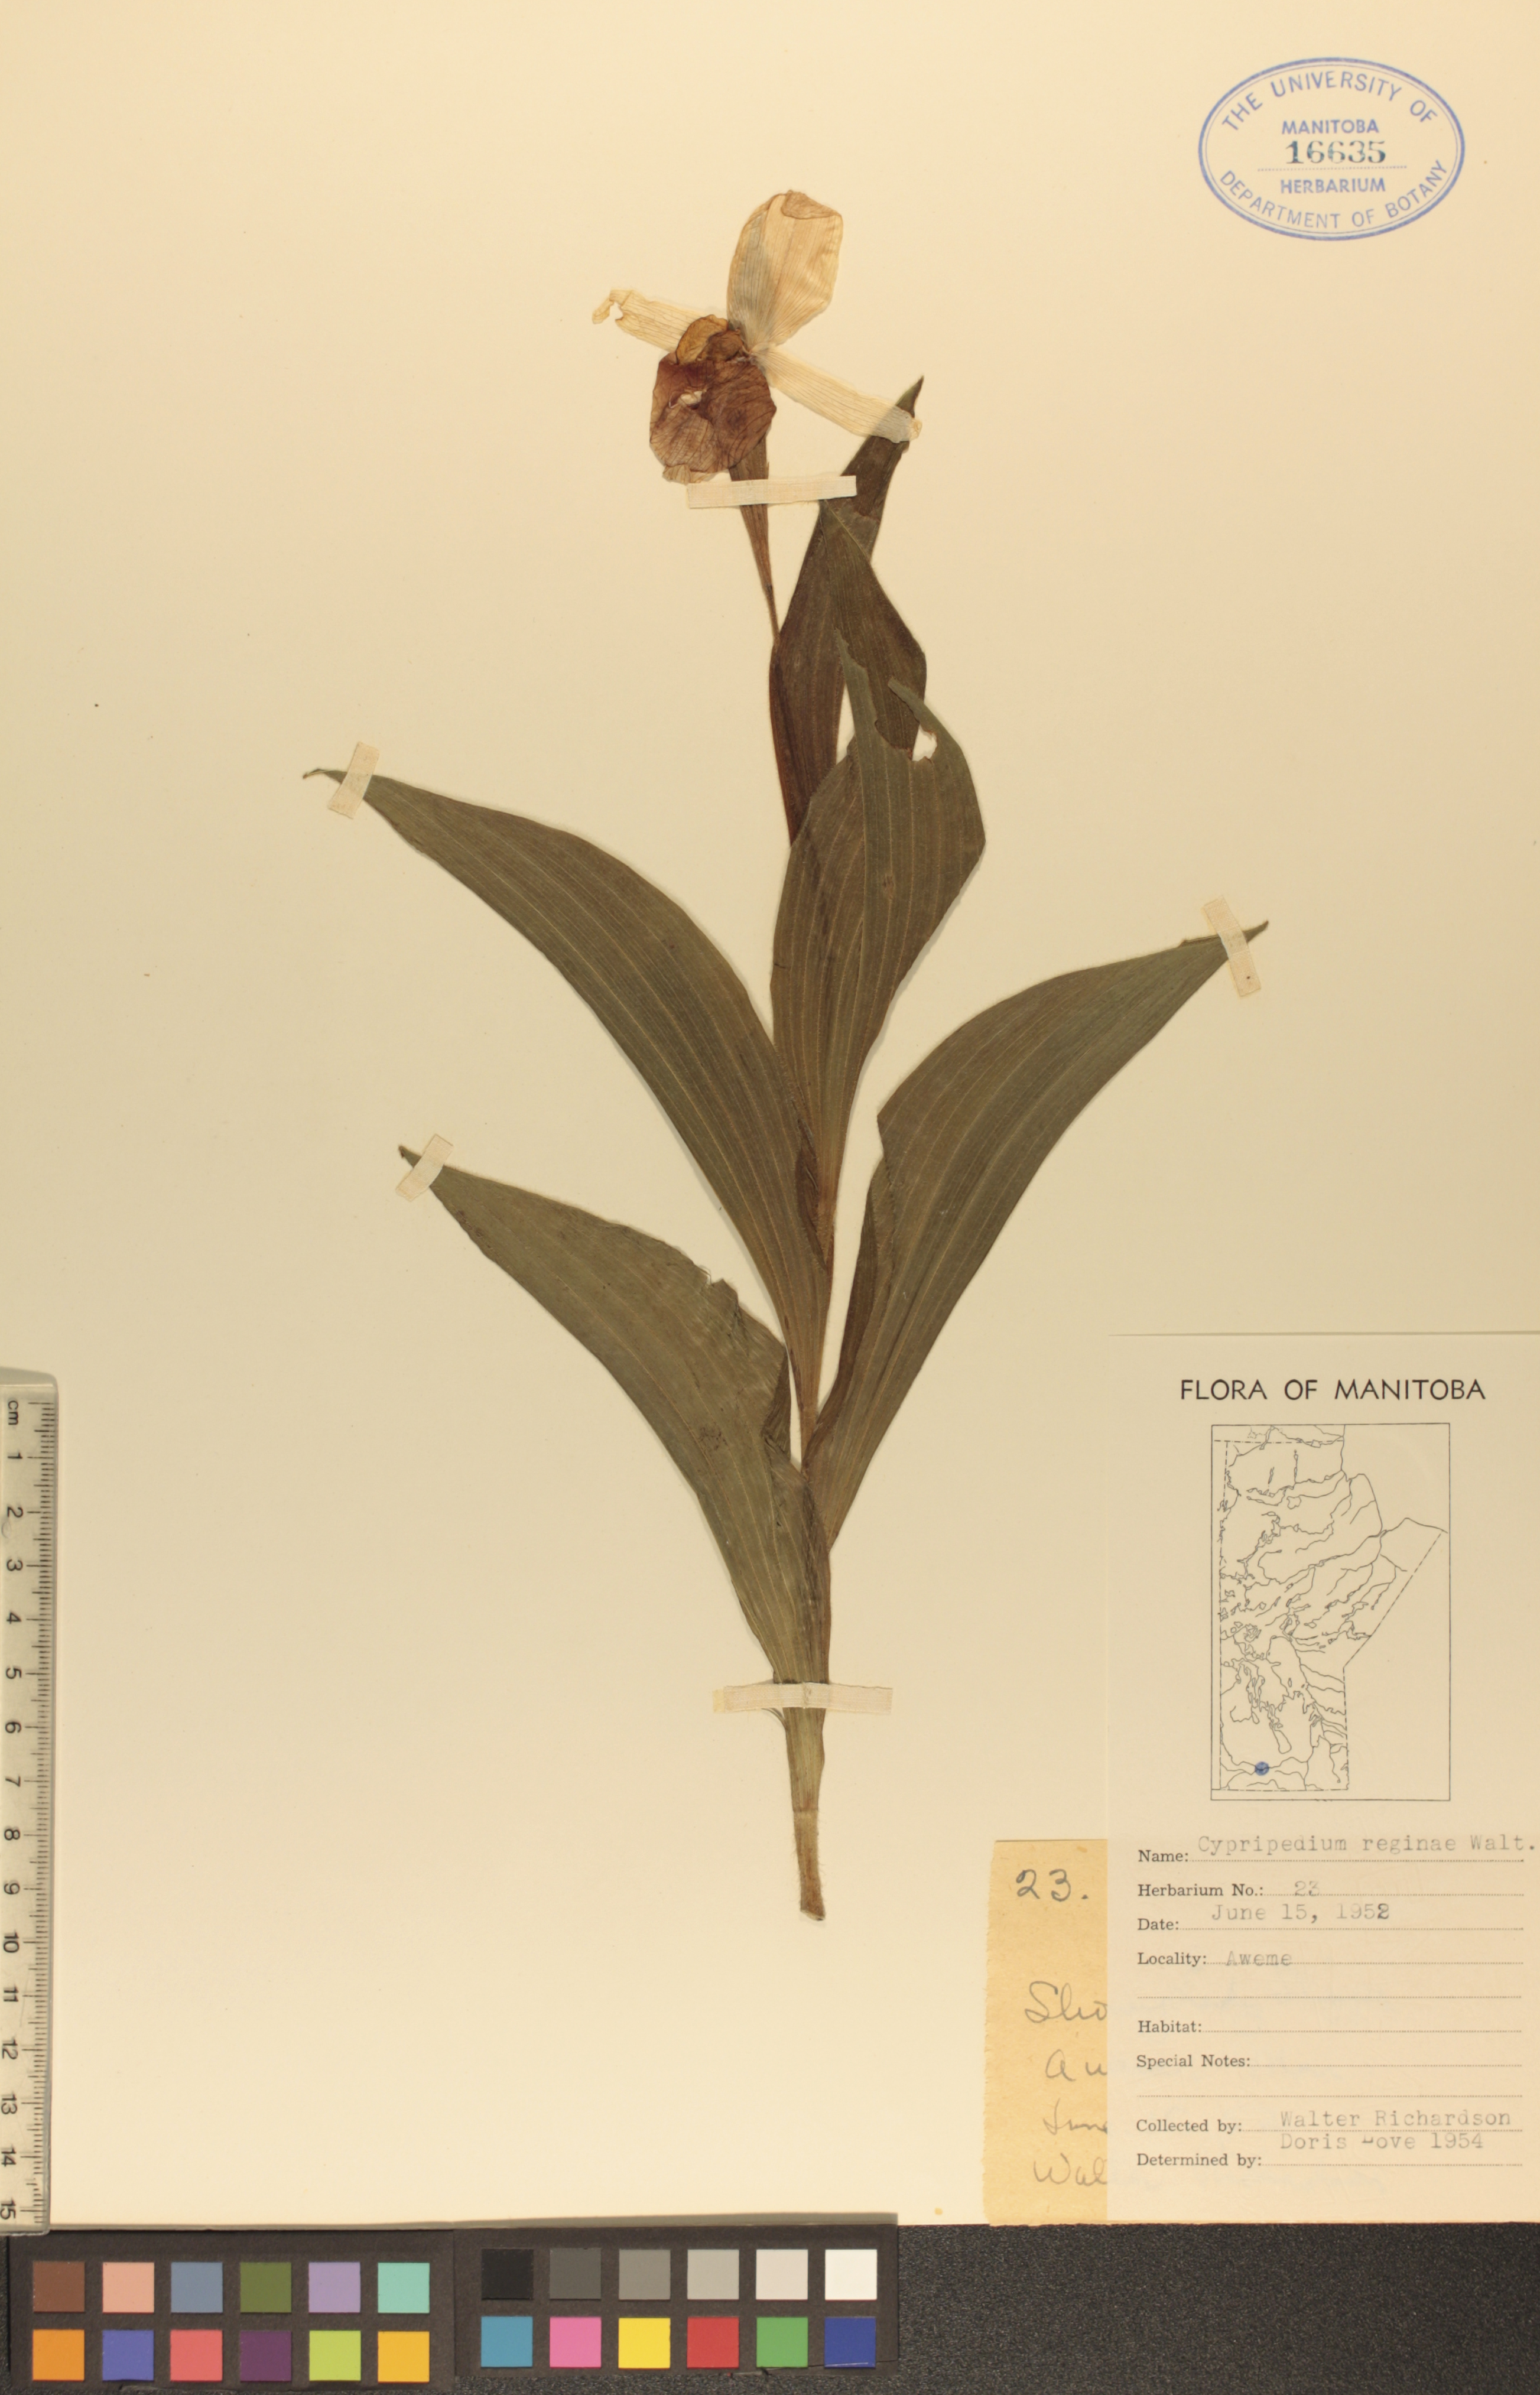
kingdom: Plantae
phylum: Tracheophyta
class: Liliopsida
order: Asparagales
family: Orchidaceae
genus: Cypripedium
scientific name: Cypripedium reginae
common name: Queen lady's-slipper
